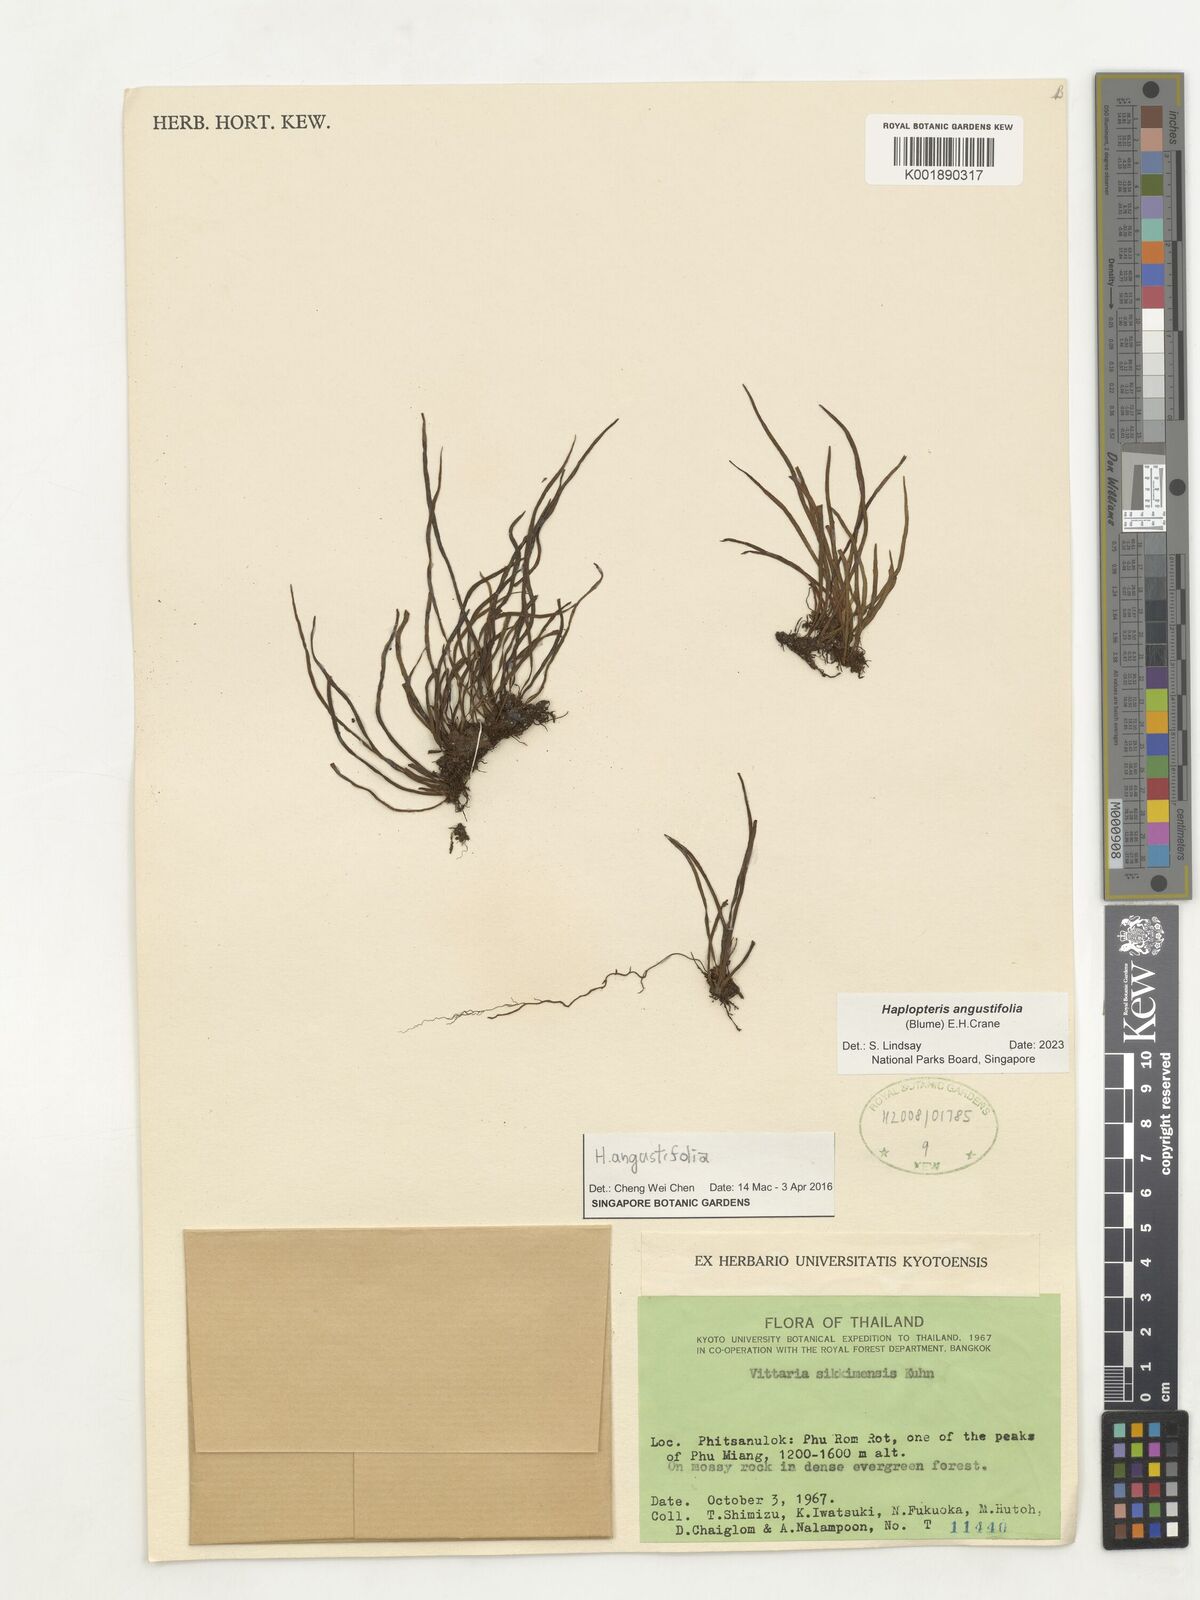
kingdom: Plantae
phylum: Tracheophyta
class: Polypodiopsida
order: Polypodiales
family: Pteridaceae
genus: Haplopteris
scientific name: Haplopteris angustifolia
